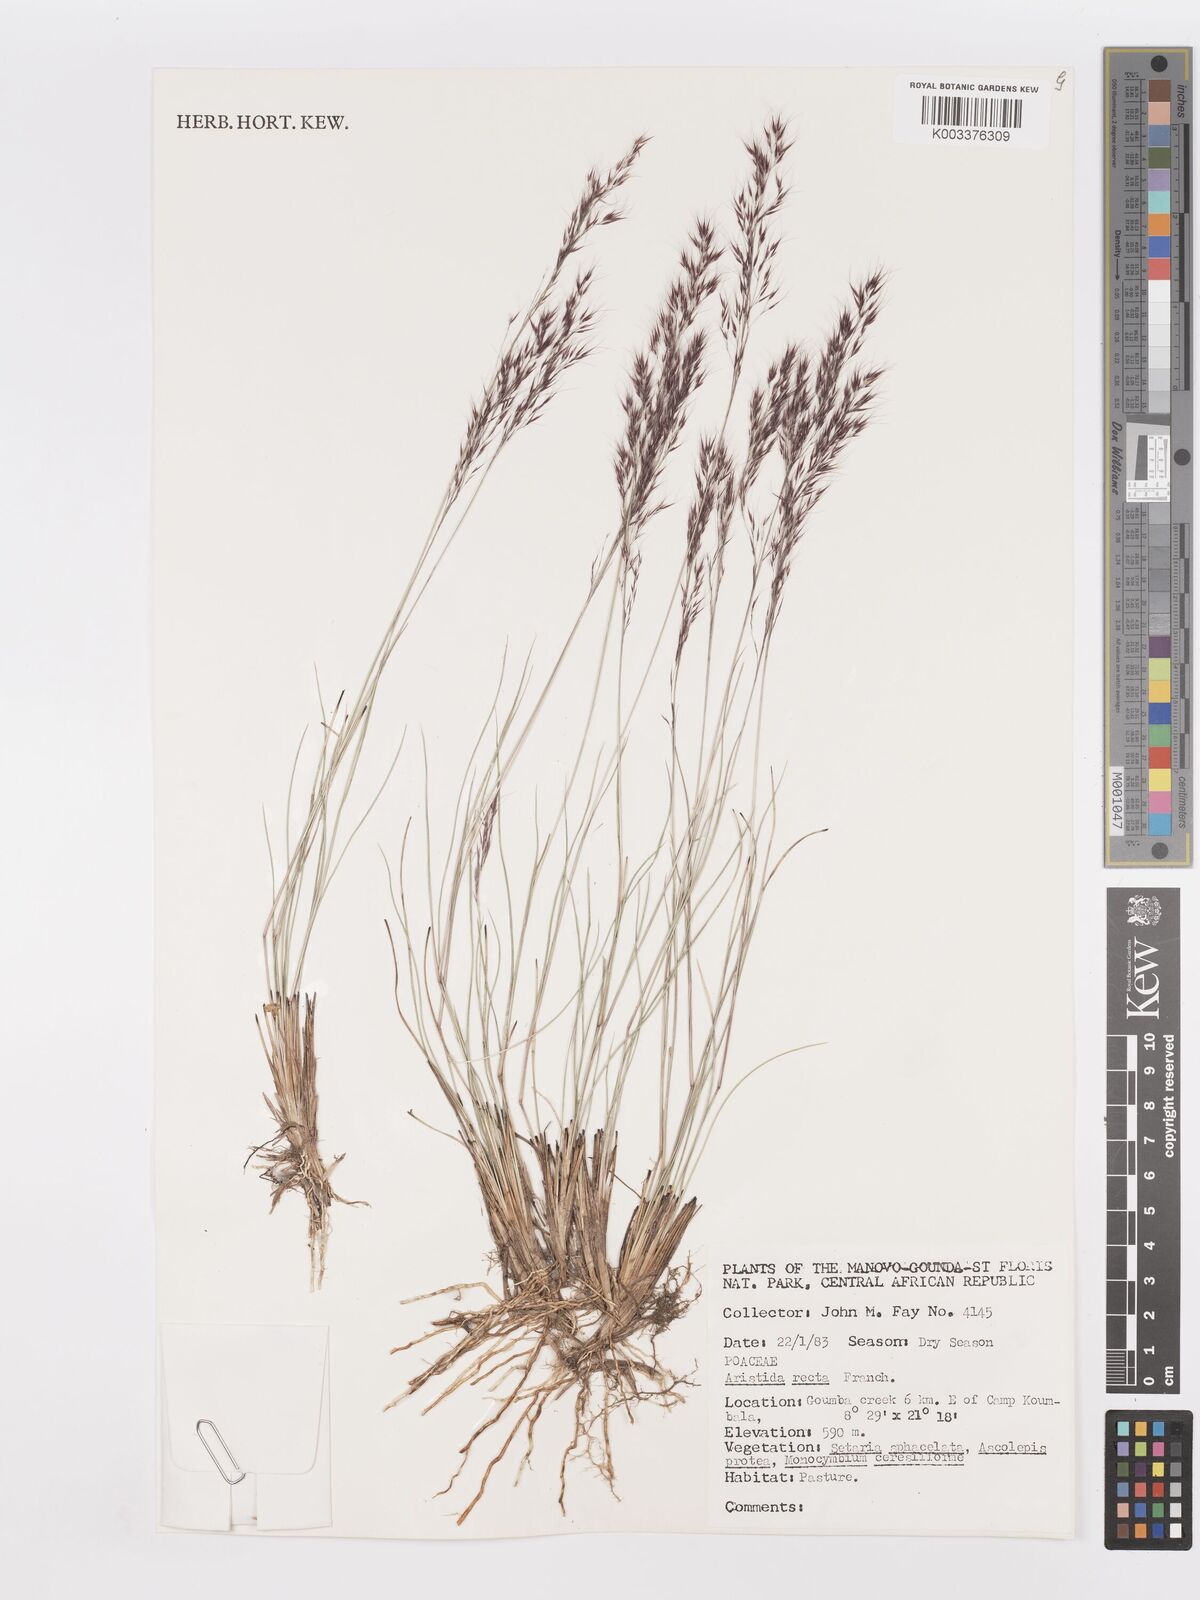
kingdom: Plantae
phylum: Tracheophyta
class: Liliopsida
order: Poales
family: Poaceae
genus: Aristida
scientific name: Aristida recta
